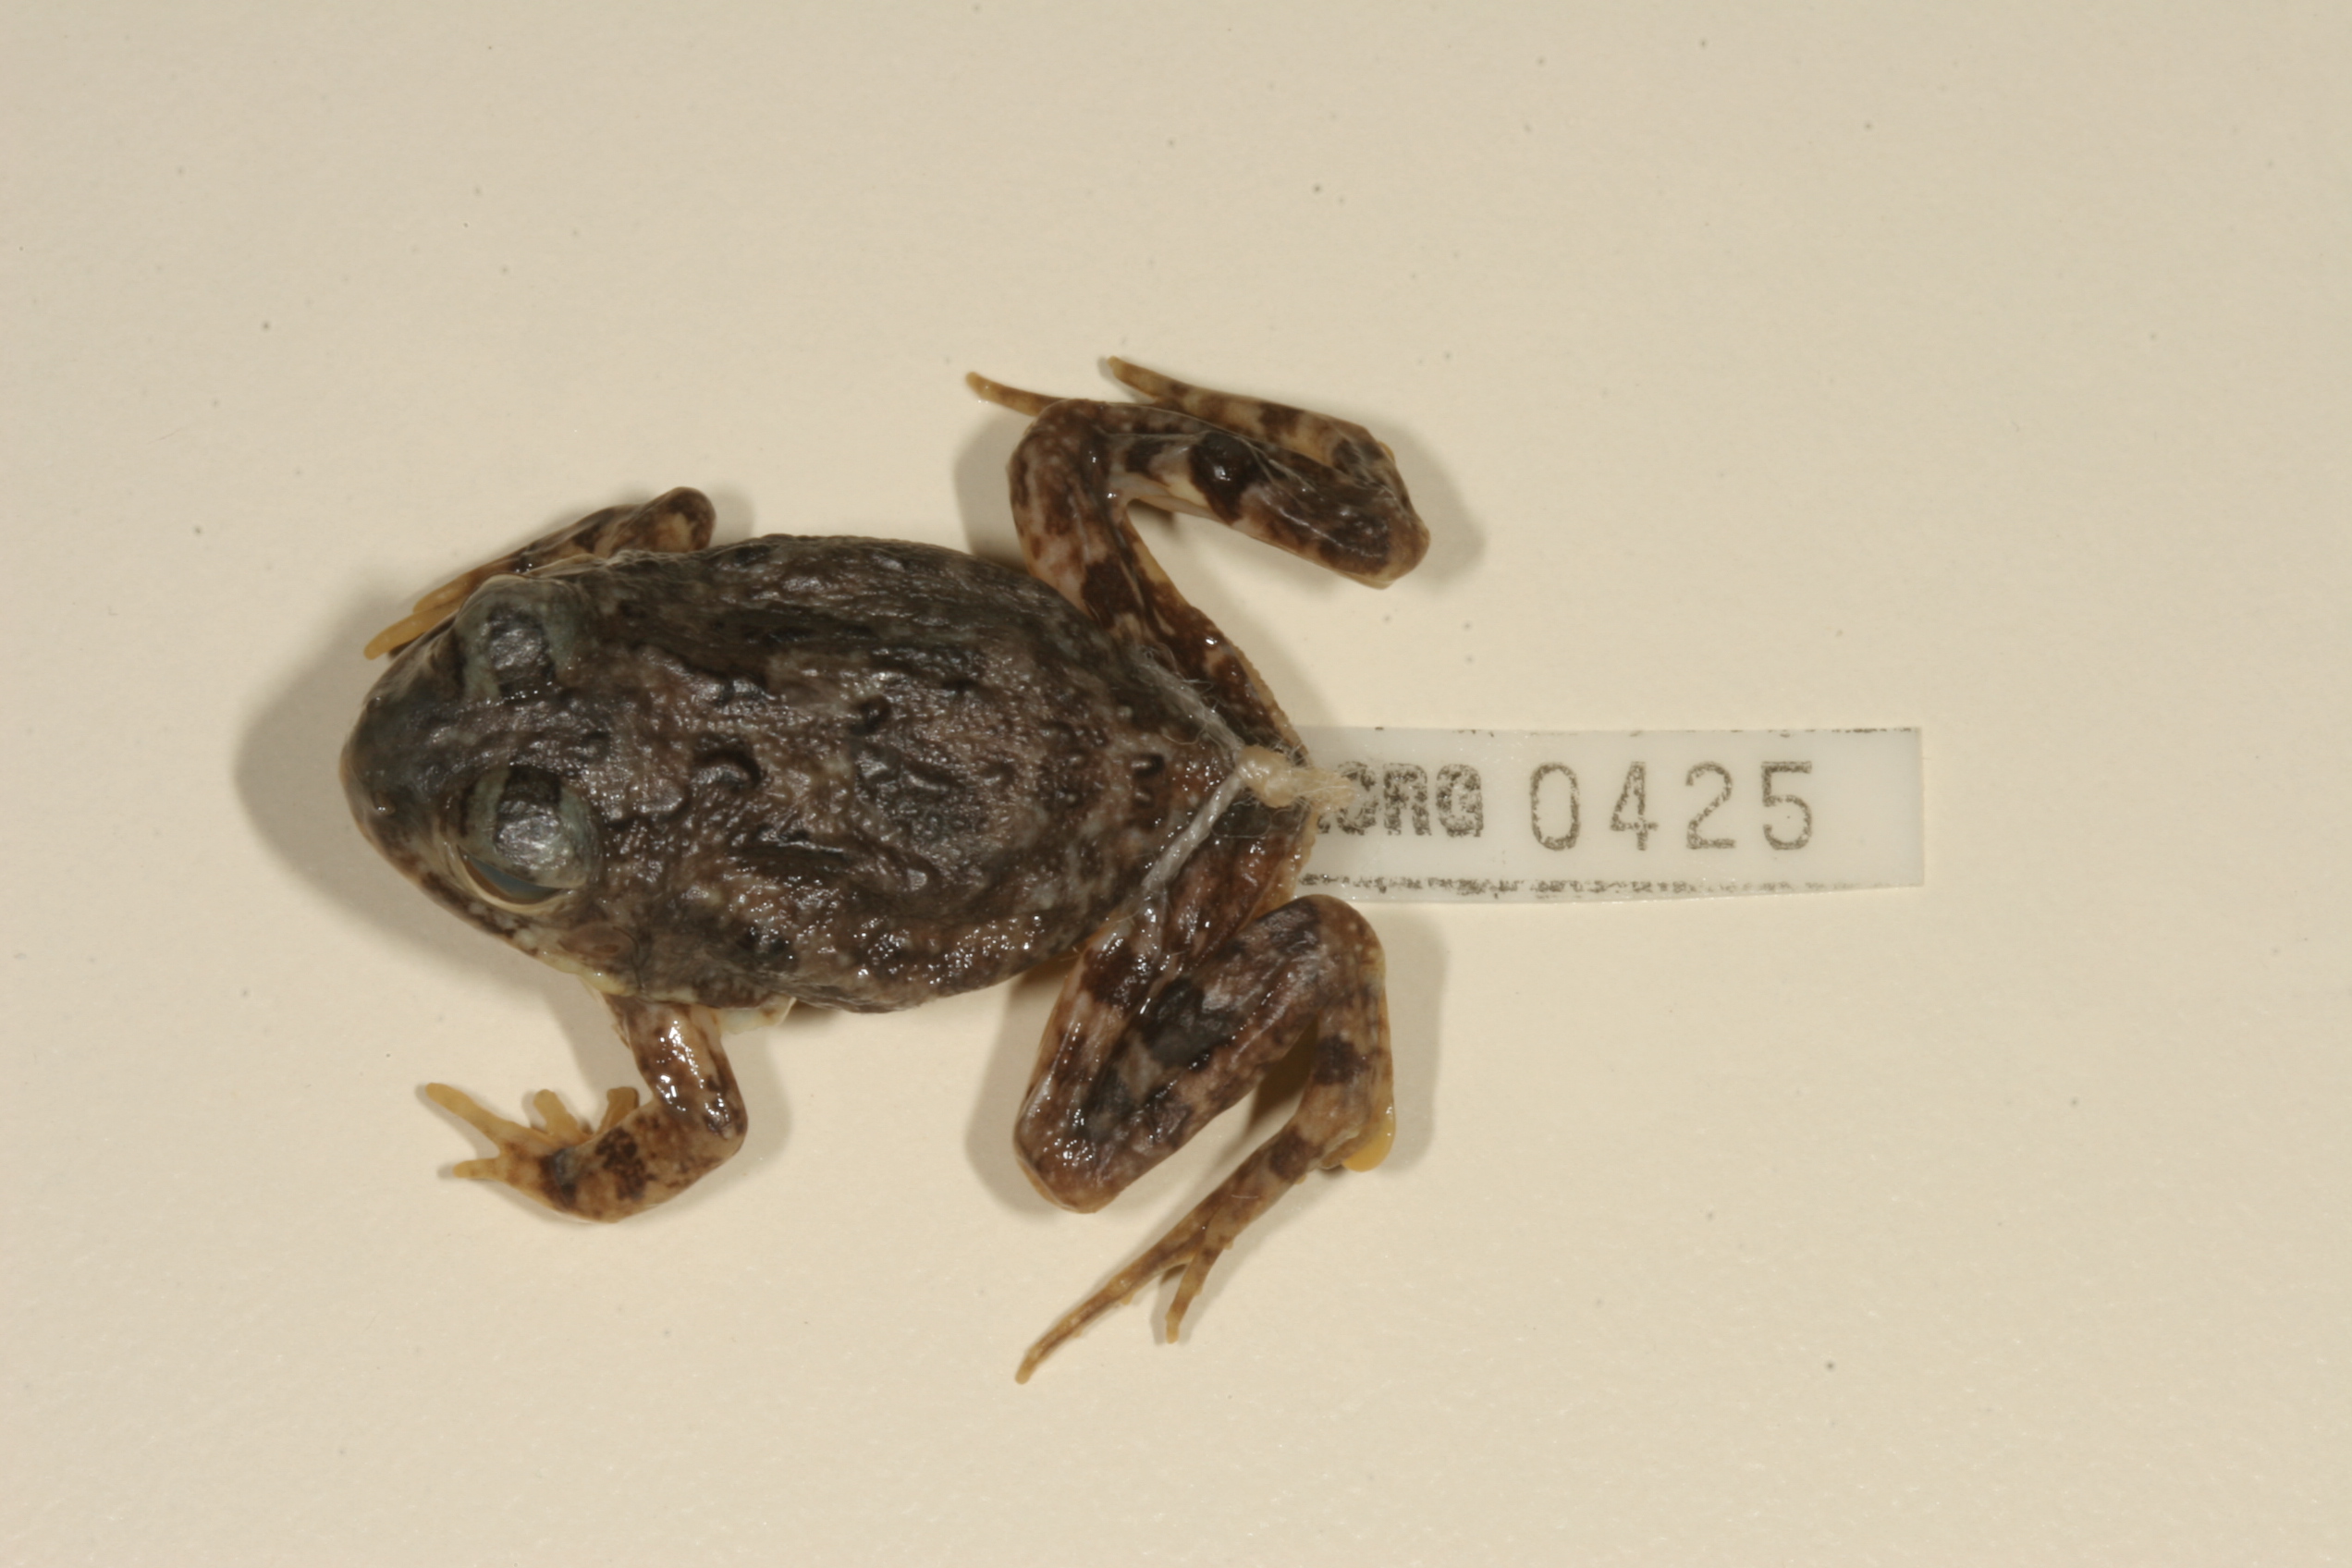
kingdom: Animalia
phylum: Chordata
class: Amphibia
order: Anura
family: Pyxicephalidae
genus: Tomopterna
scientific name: Tomopterna cryptotis
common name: Catequero bullfrog
